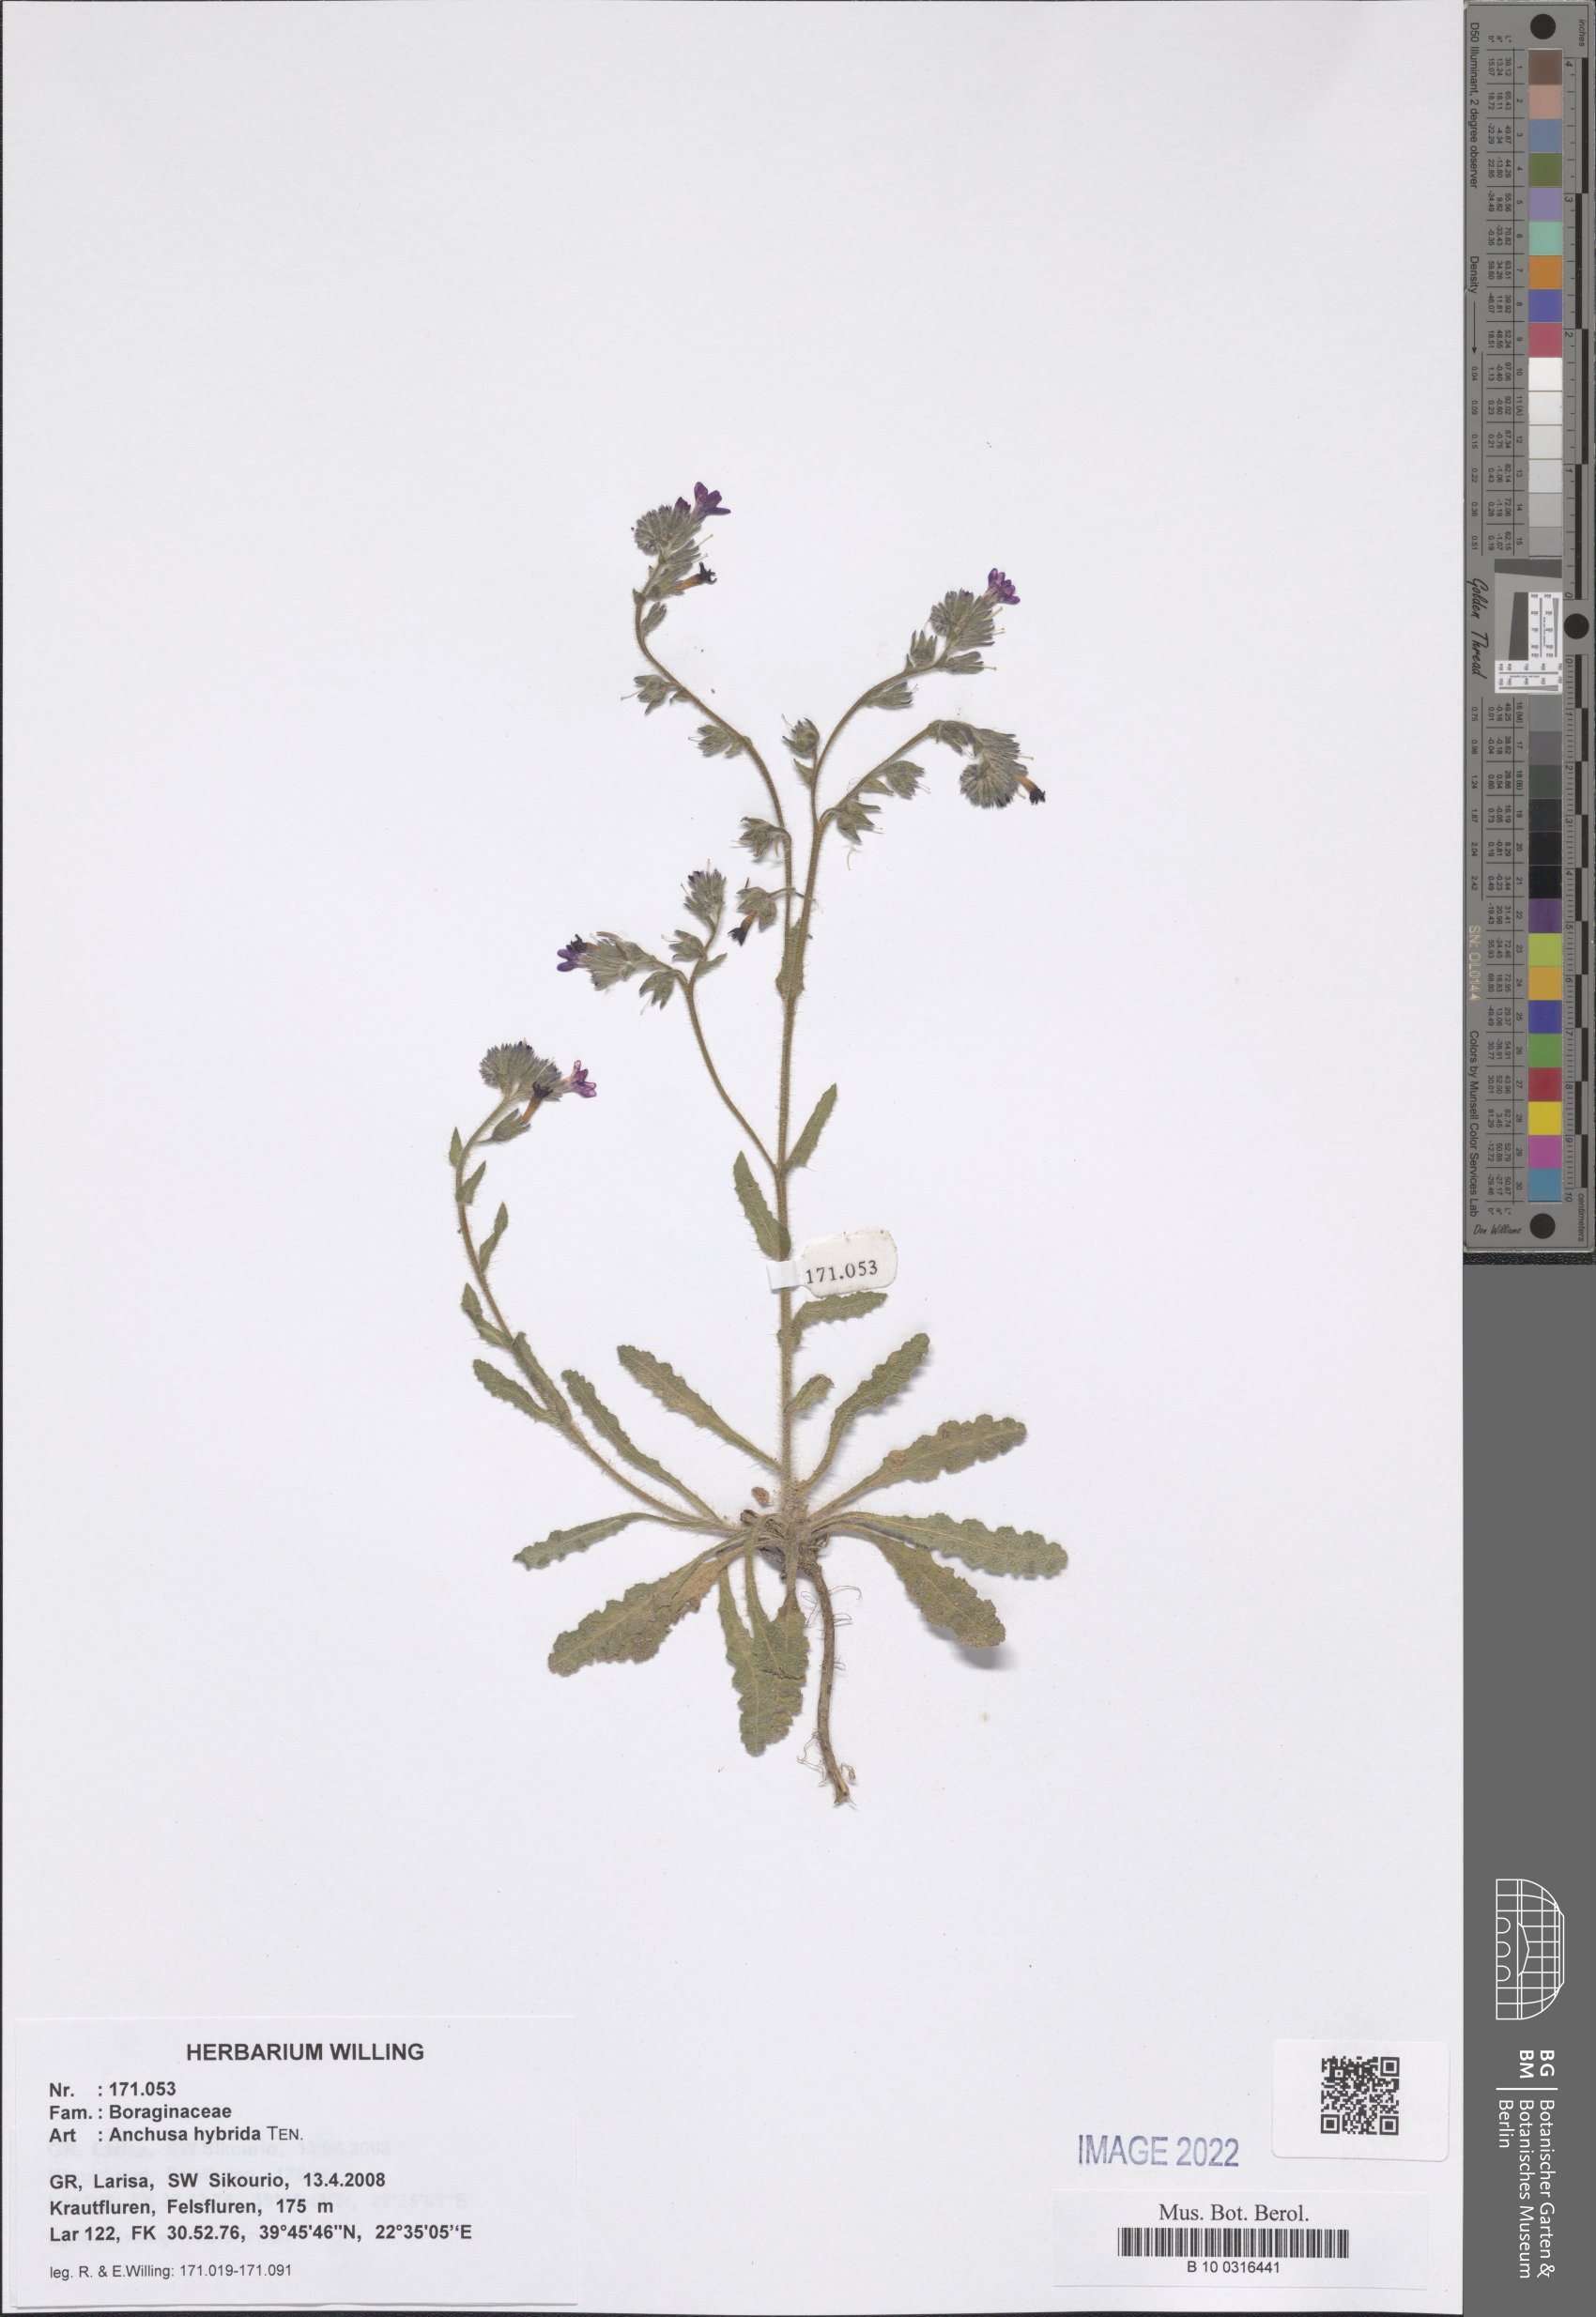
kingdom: Plantae
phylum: Tracheophyta
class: Magnoliopsida
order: Boraginales
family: Boraginaceae
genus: Anchusa
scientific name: Anchusa hybrida
